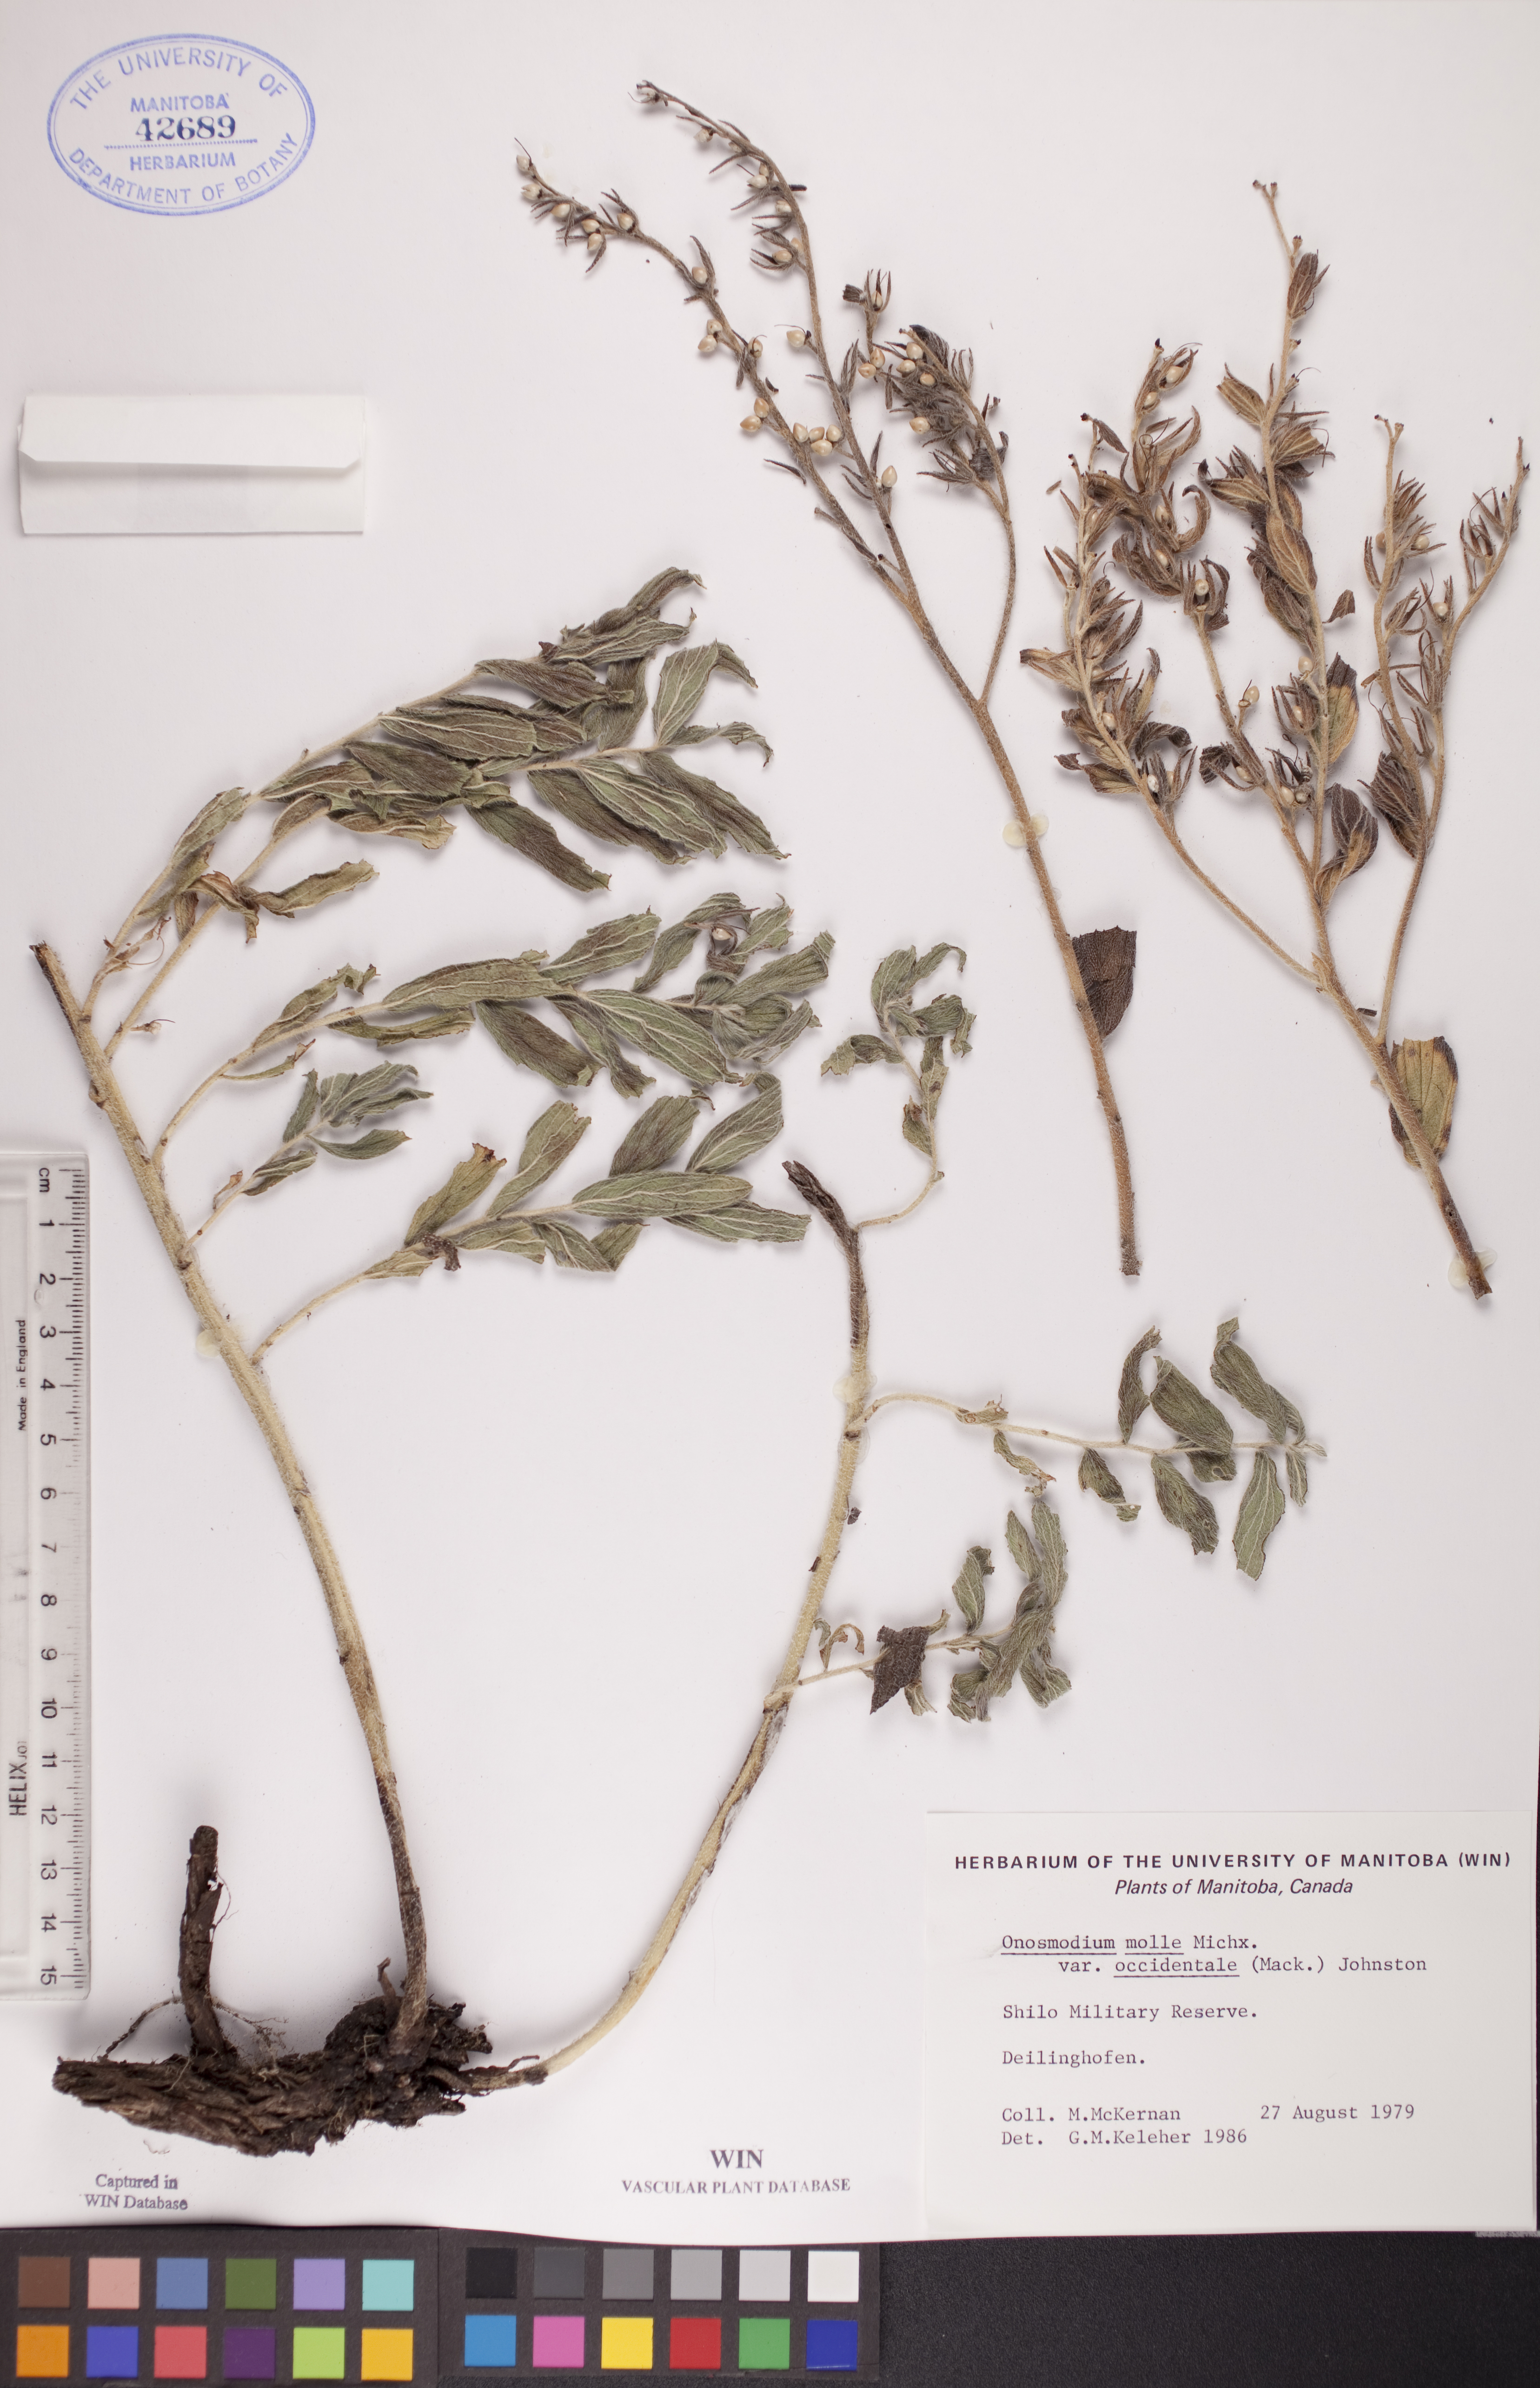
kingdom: Plantae
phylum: Tracheophyta
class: Magnoliopsida
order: Boraginales
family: Boraginaceae
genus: Lithospermum
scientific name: Lithospermum occidentale
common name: Western false gromwell
